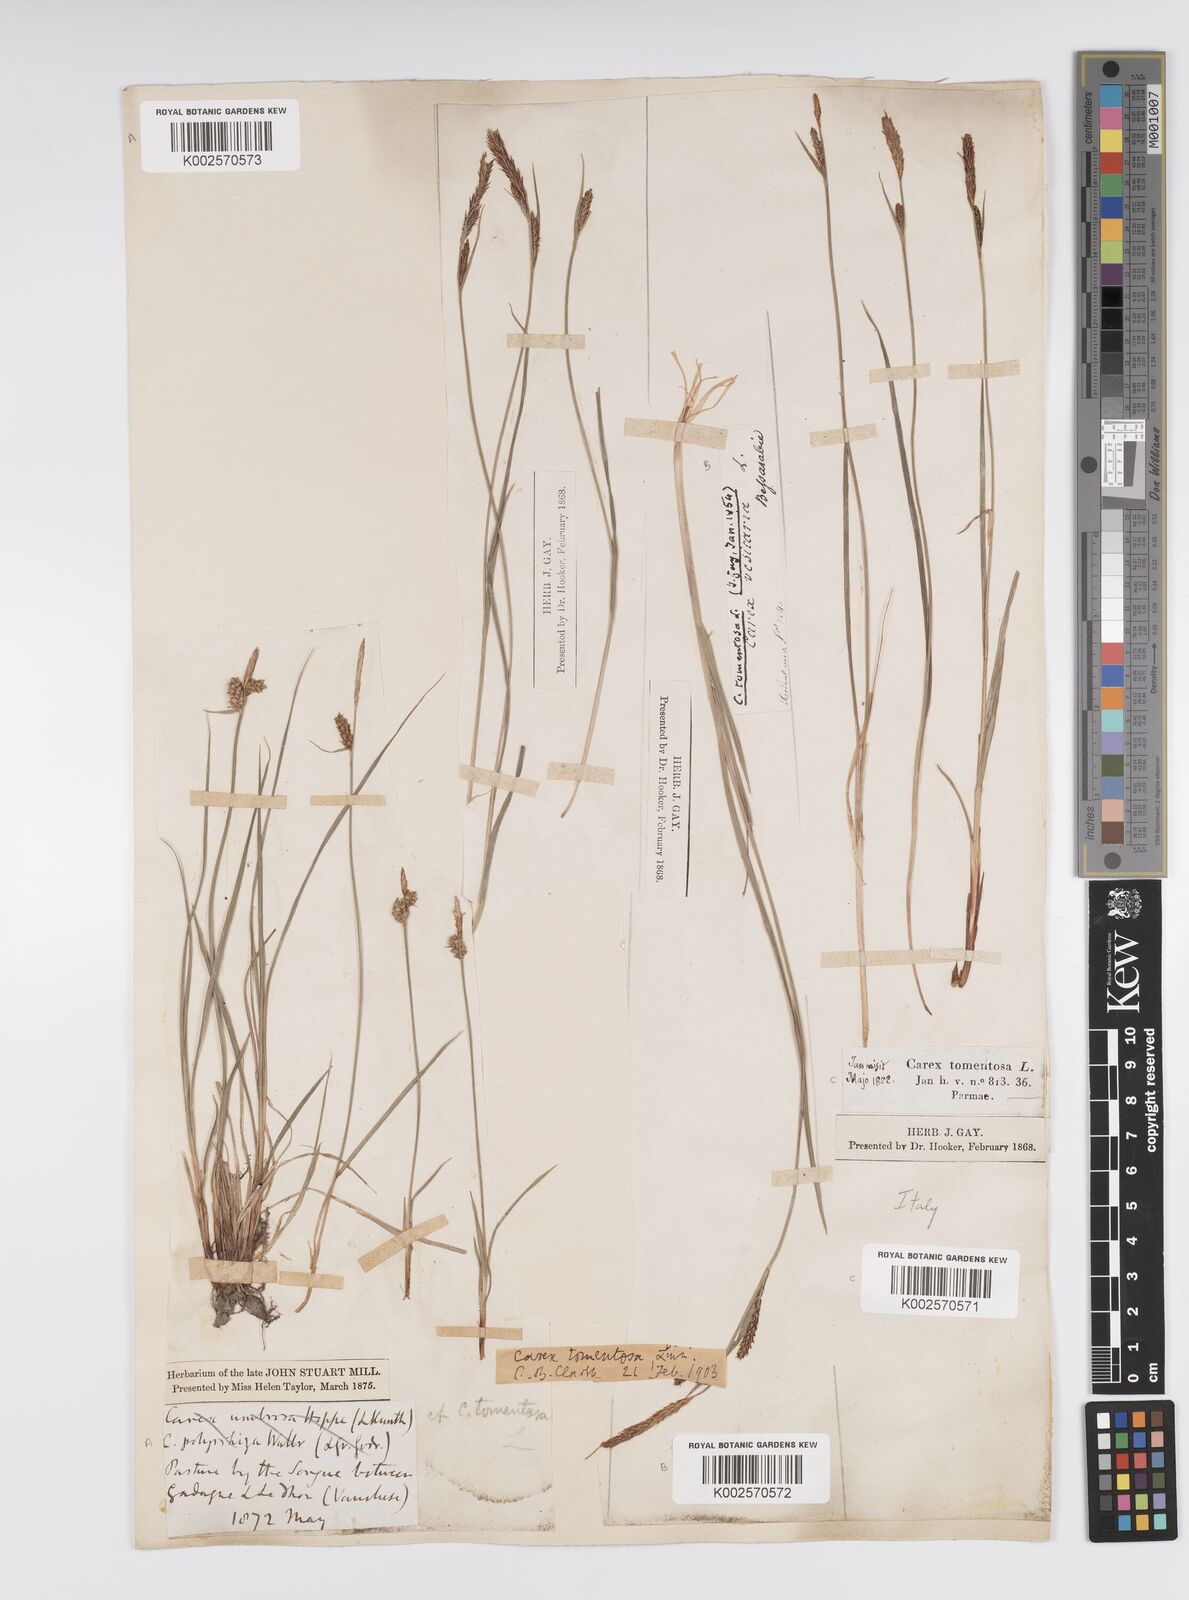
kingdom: Plantae
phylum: Tracheophyta
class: Liliopsida
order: Poales
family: Cyperaceae
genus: Carex
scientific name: Carex montana
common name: Soft-leaved sedge
